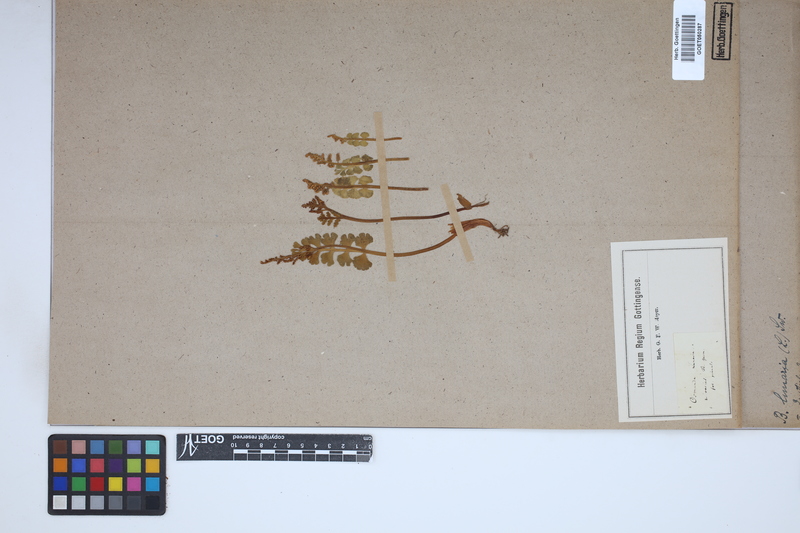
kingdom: Plantae
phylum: Tracheophyta
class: Polypodiopsida
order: Ophioglossales
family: Ophioglossaceae
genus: Botrychium
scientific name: Botrychium lunaria
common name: Moonwort
